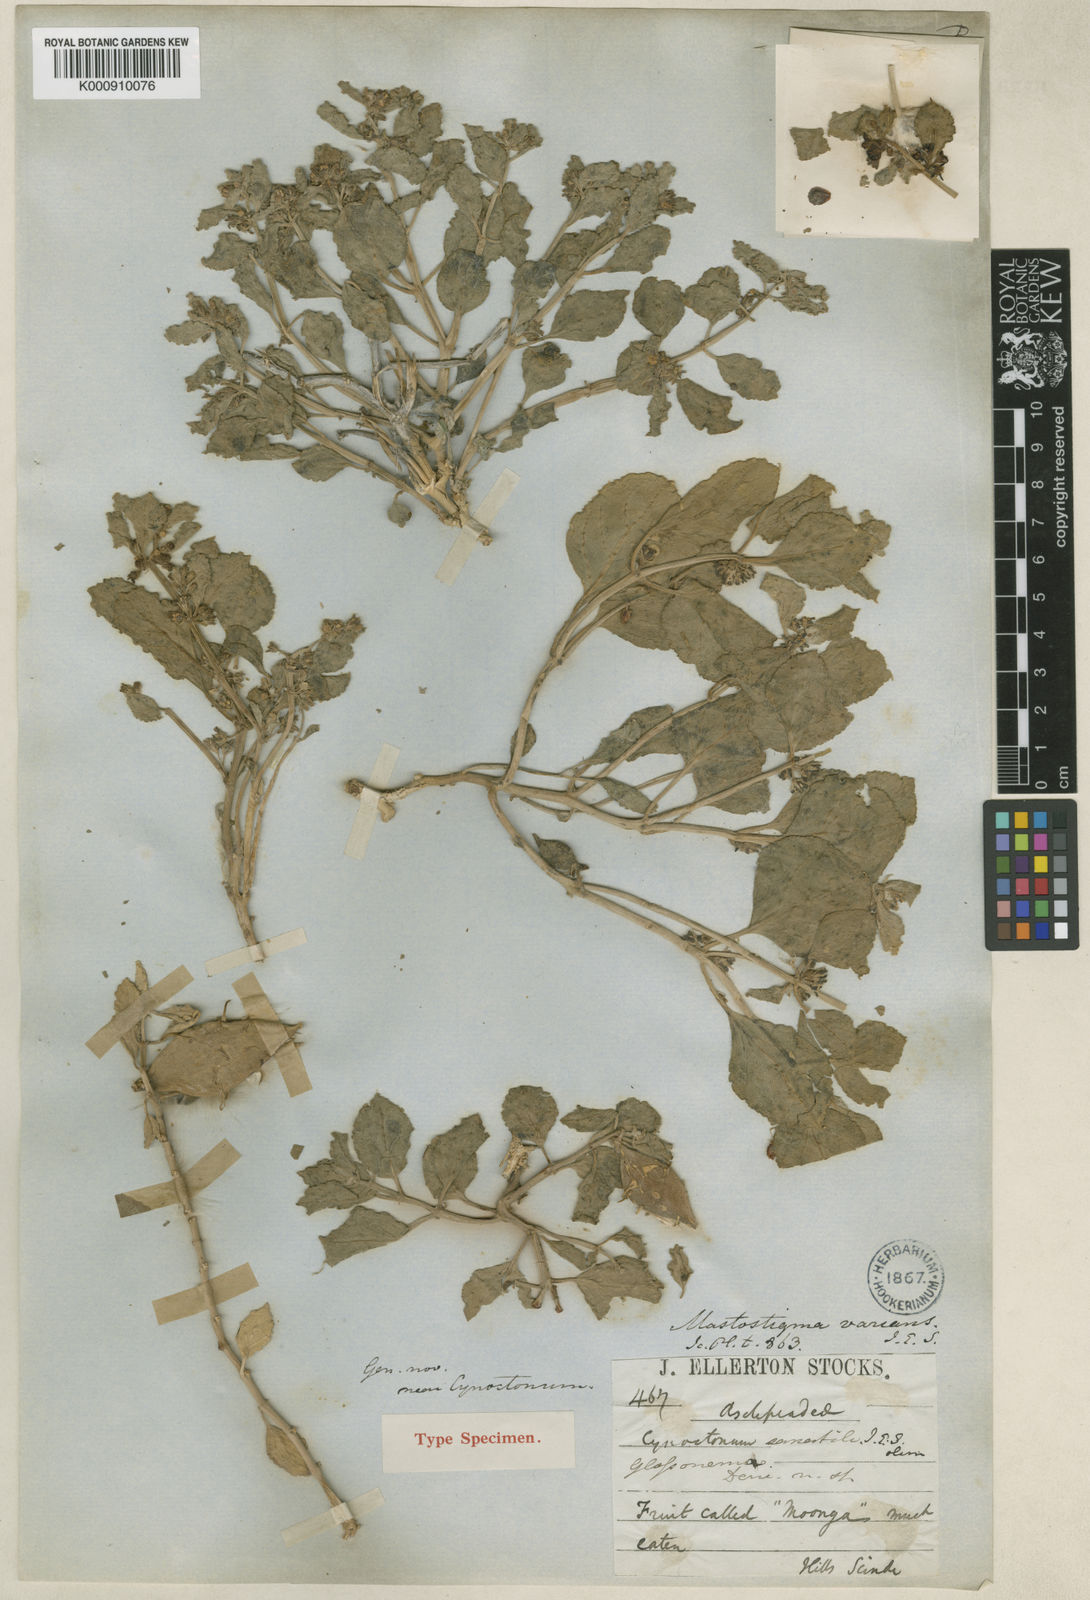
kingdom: Plantae
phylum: Tracheophyta
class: Magnoliopsida
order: Gentianales
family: Apocynaceae
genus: Cynanchum
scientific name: Cynanchum varians
